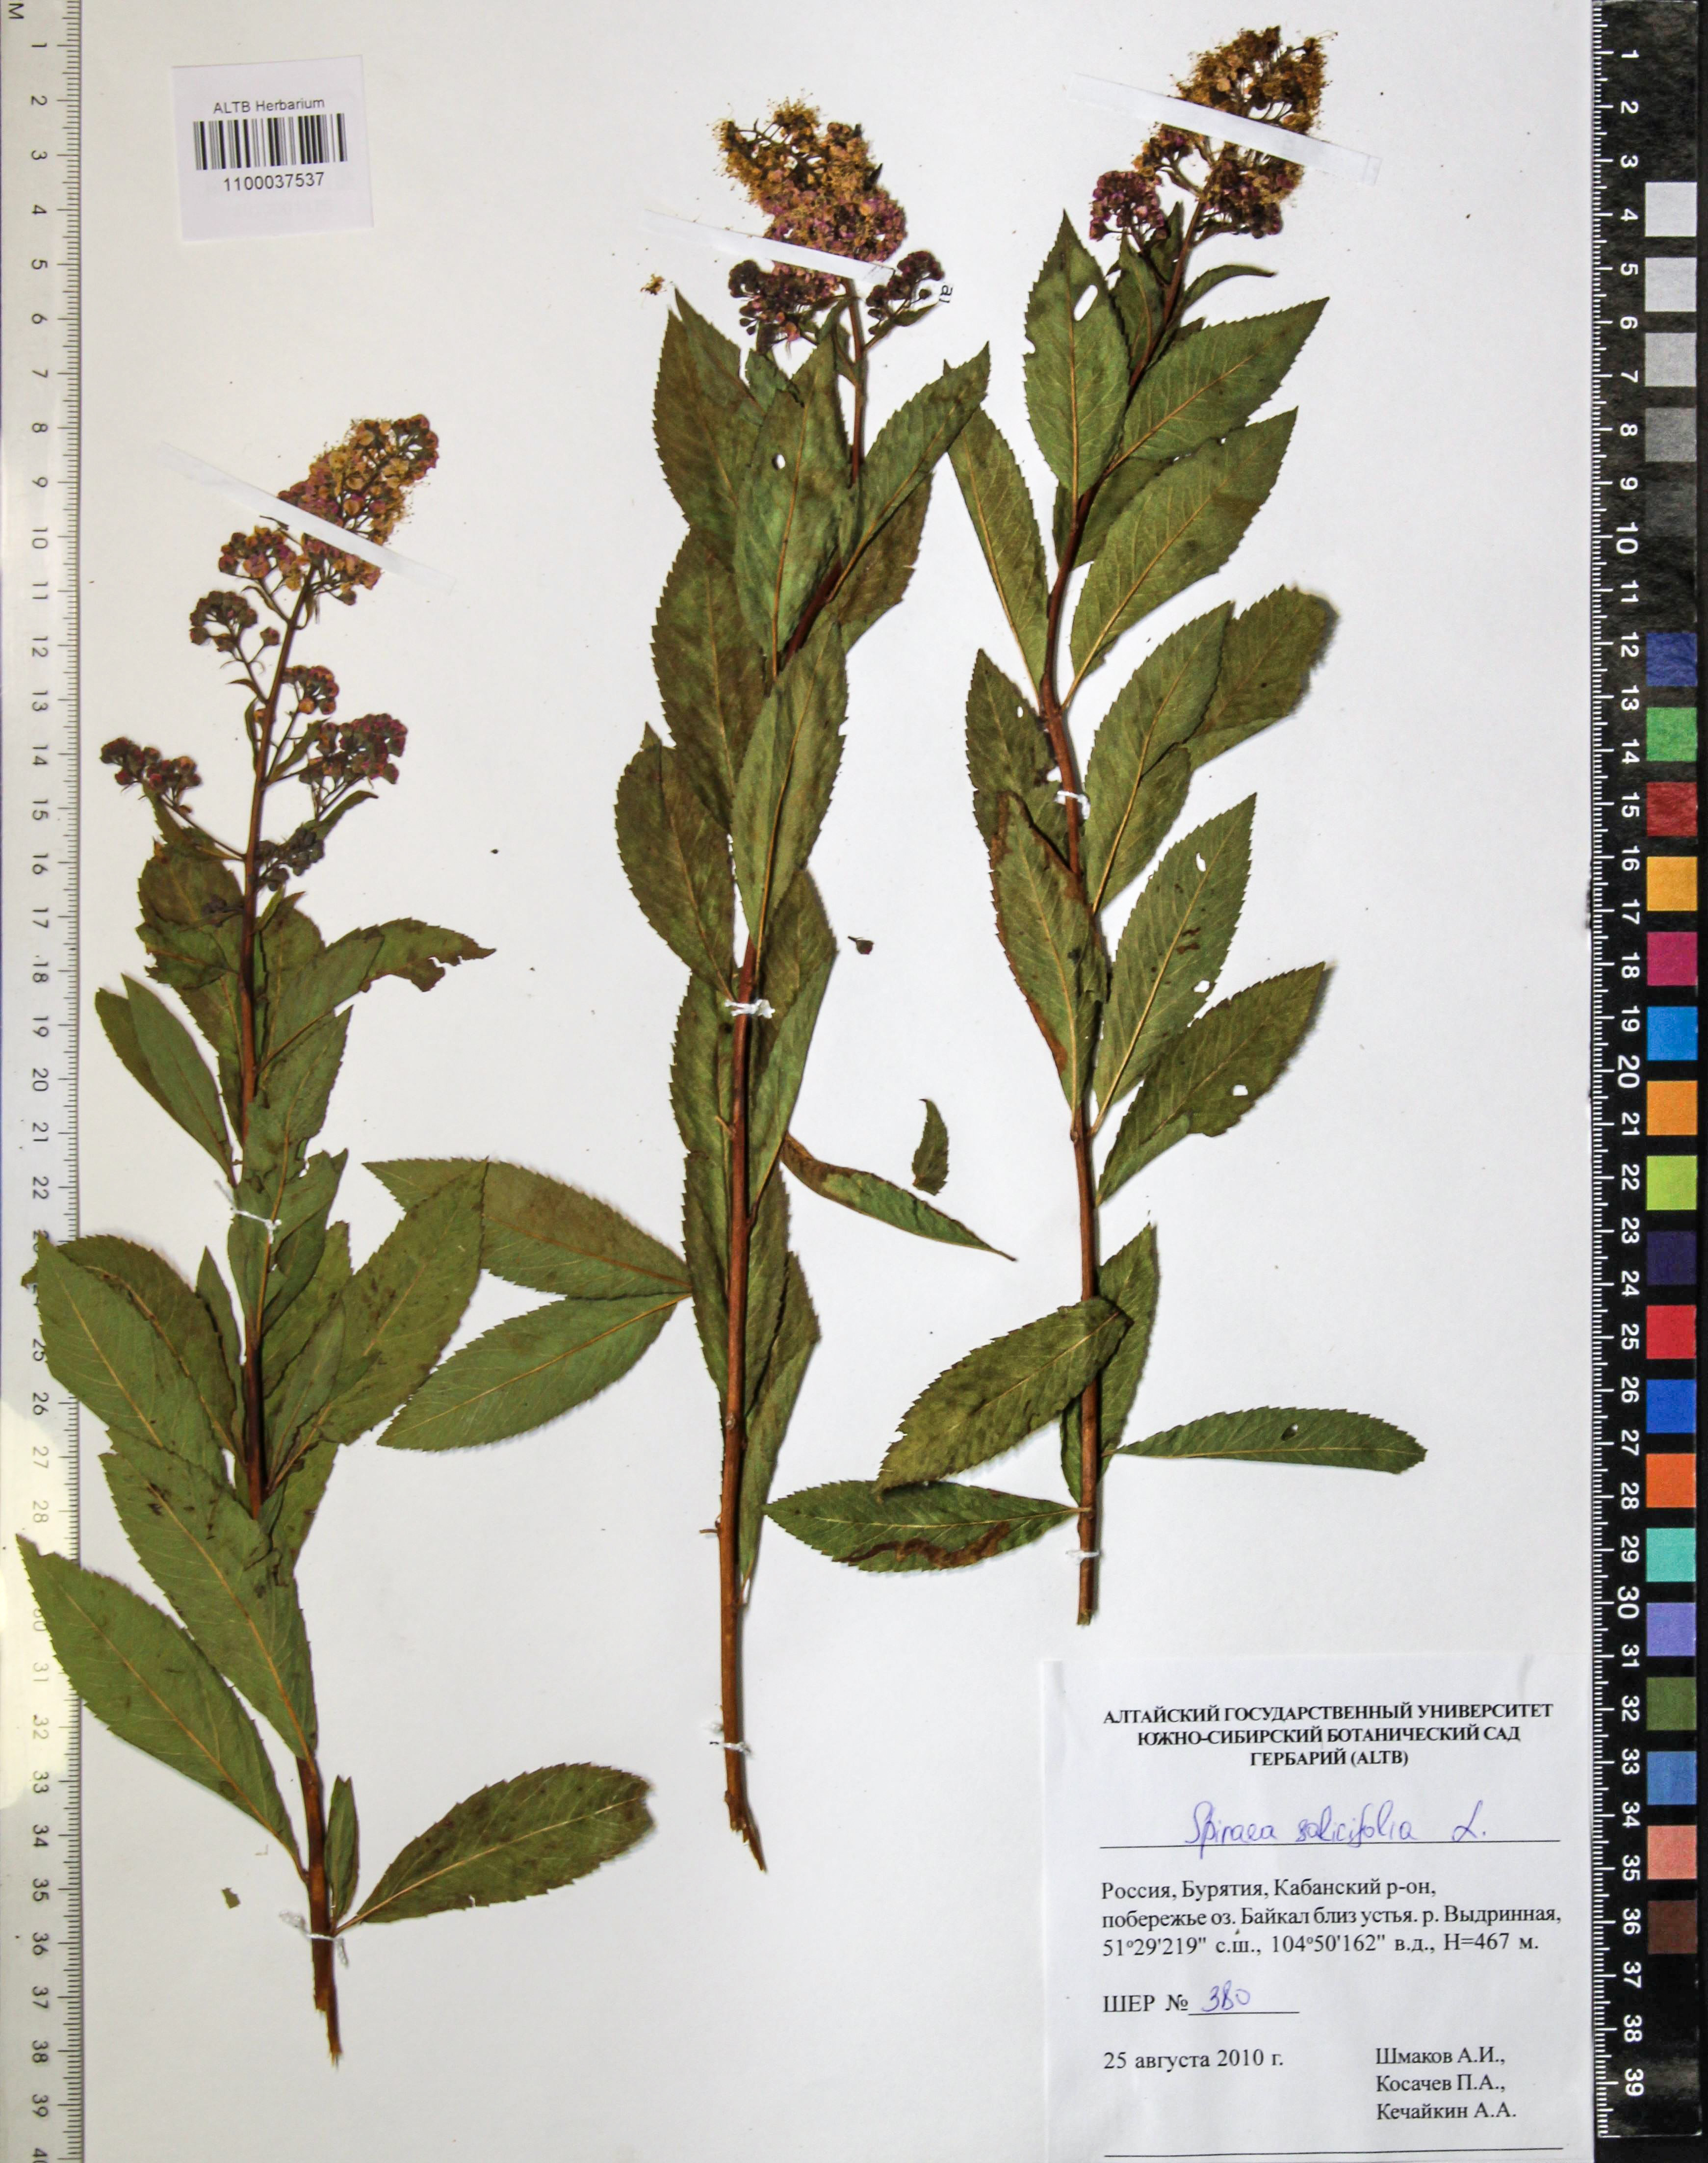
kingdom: Plantae
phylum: Tracheophyta
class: Magnoliopsida
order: Rosales
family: Rosaceae
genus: Spiraea
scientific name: Spiraea salicifolia
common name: Bridewort
